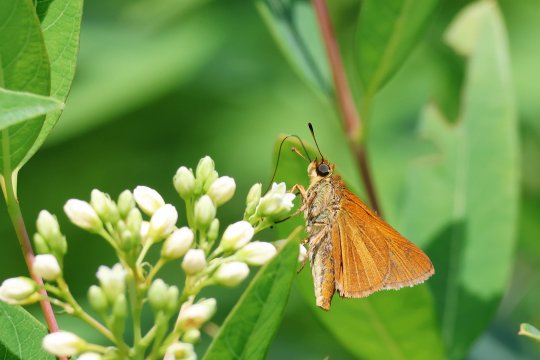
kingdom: Animalia
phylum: Arthropoda
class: Insecta
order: Lepidoptera
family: Hesperiidae
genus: Euphyes
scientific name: Euphyes dion
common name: Dion Skipper
